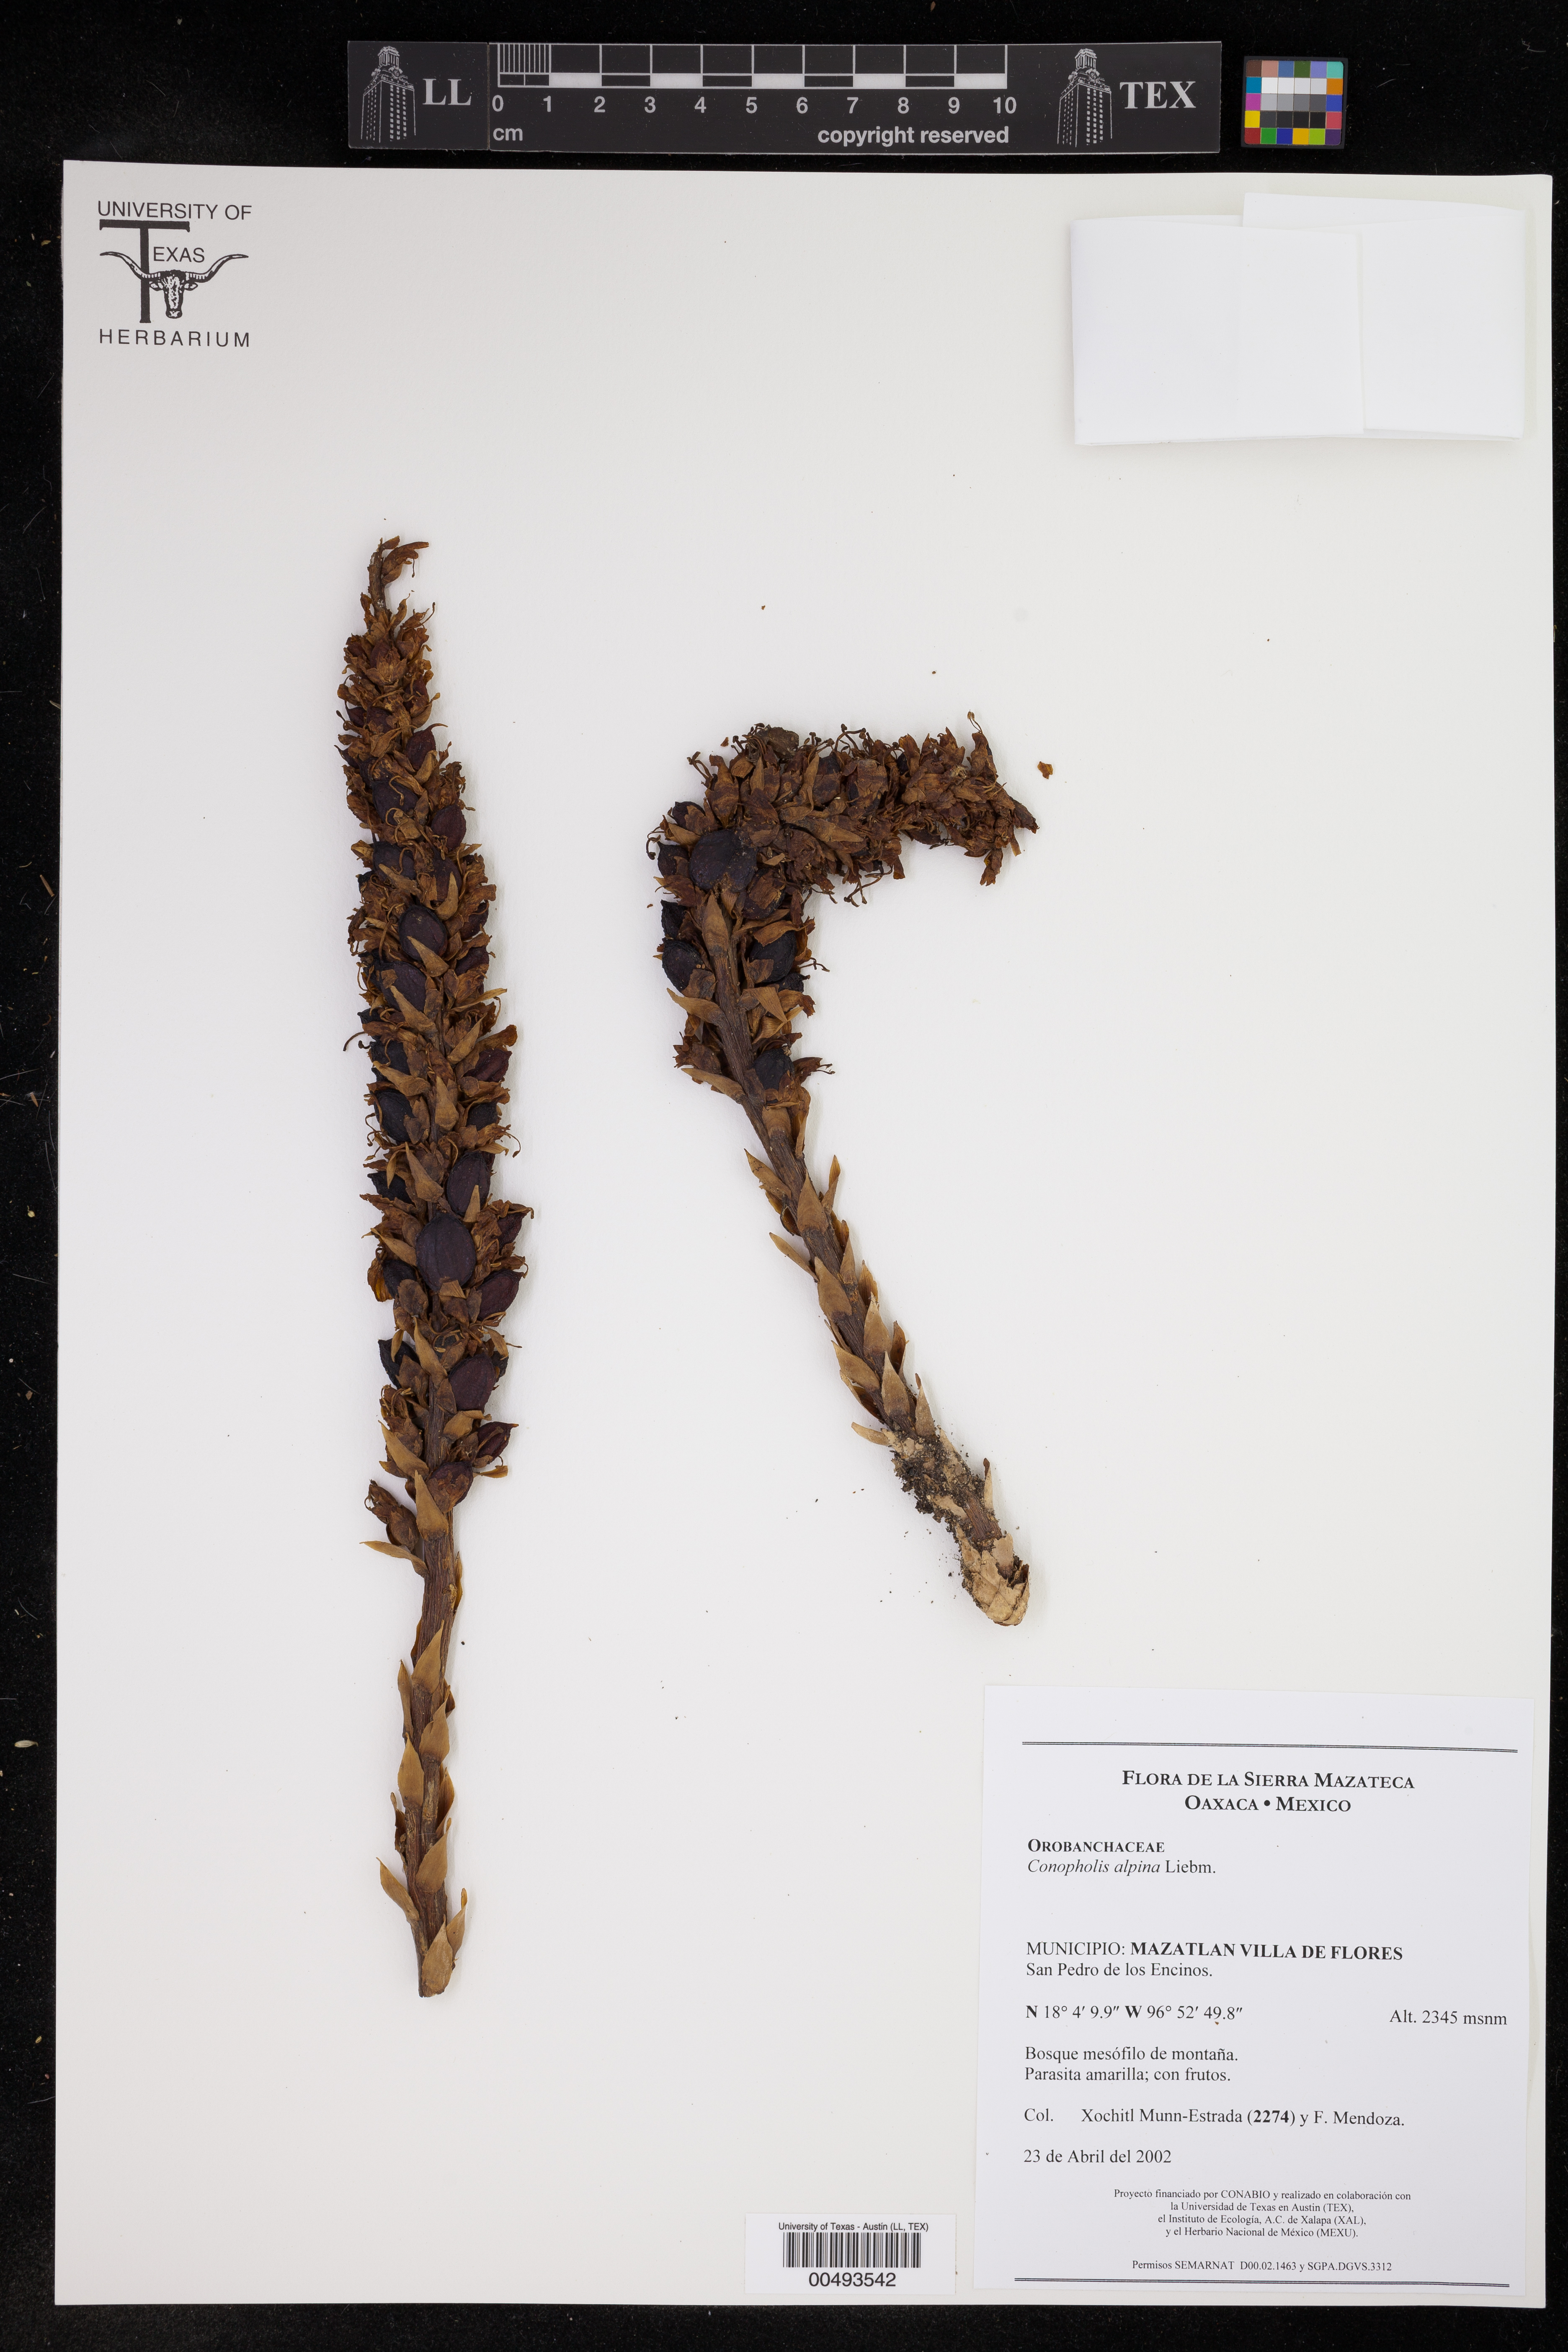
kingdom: Plantae
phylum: Tracheophyta
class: Magnoliopsida
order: Lamiales
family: Orobanchaceae
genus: Conopholis
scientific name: Conopholis alpina
